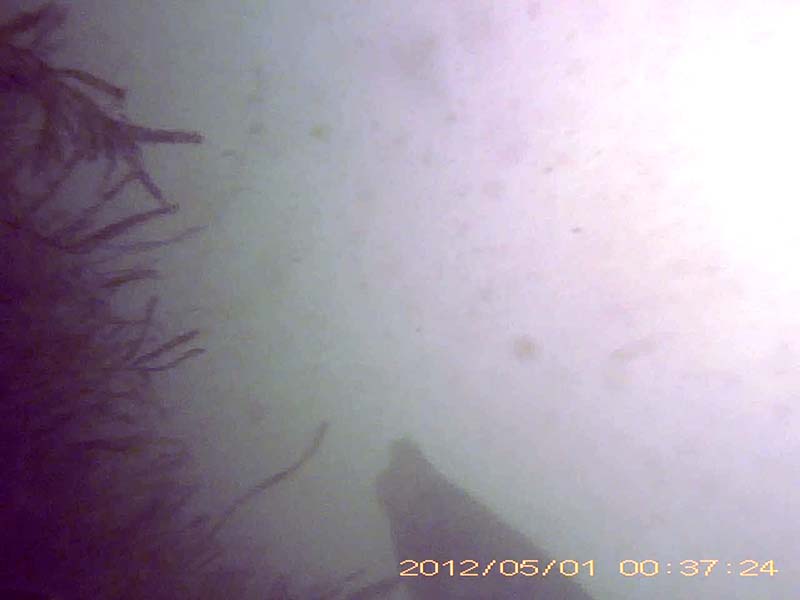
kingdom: Animalia
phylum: Chordata
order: Siluriformes
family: Siluridae
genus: Silurus
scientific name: Silurus
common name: ナマズ
